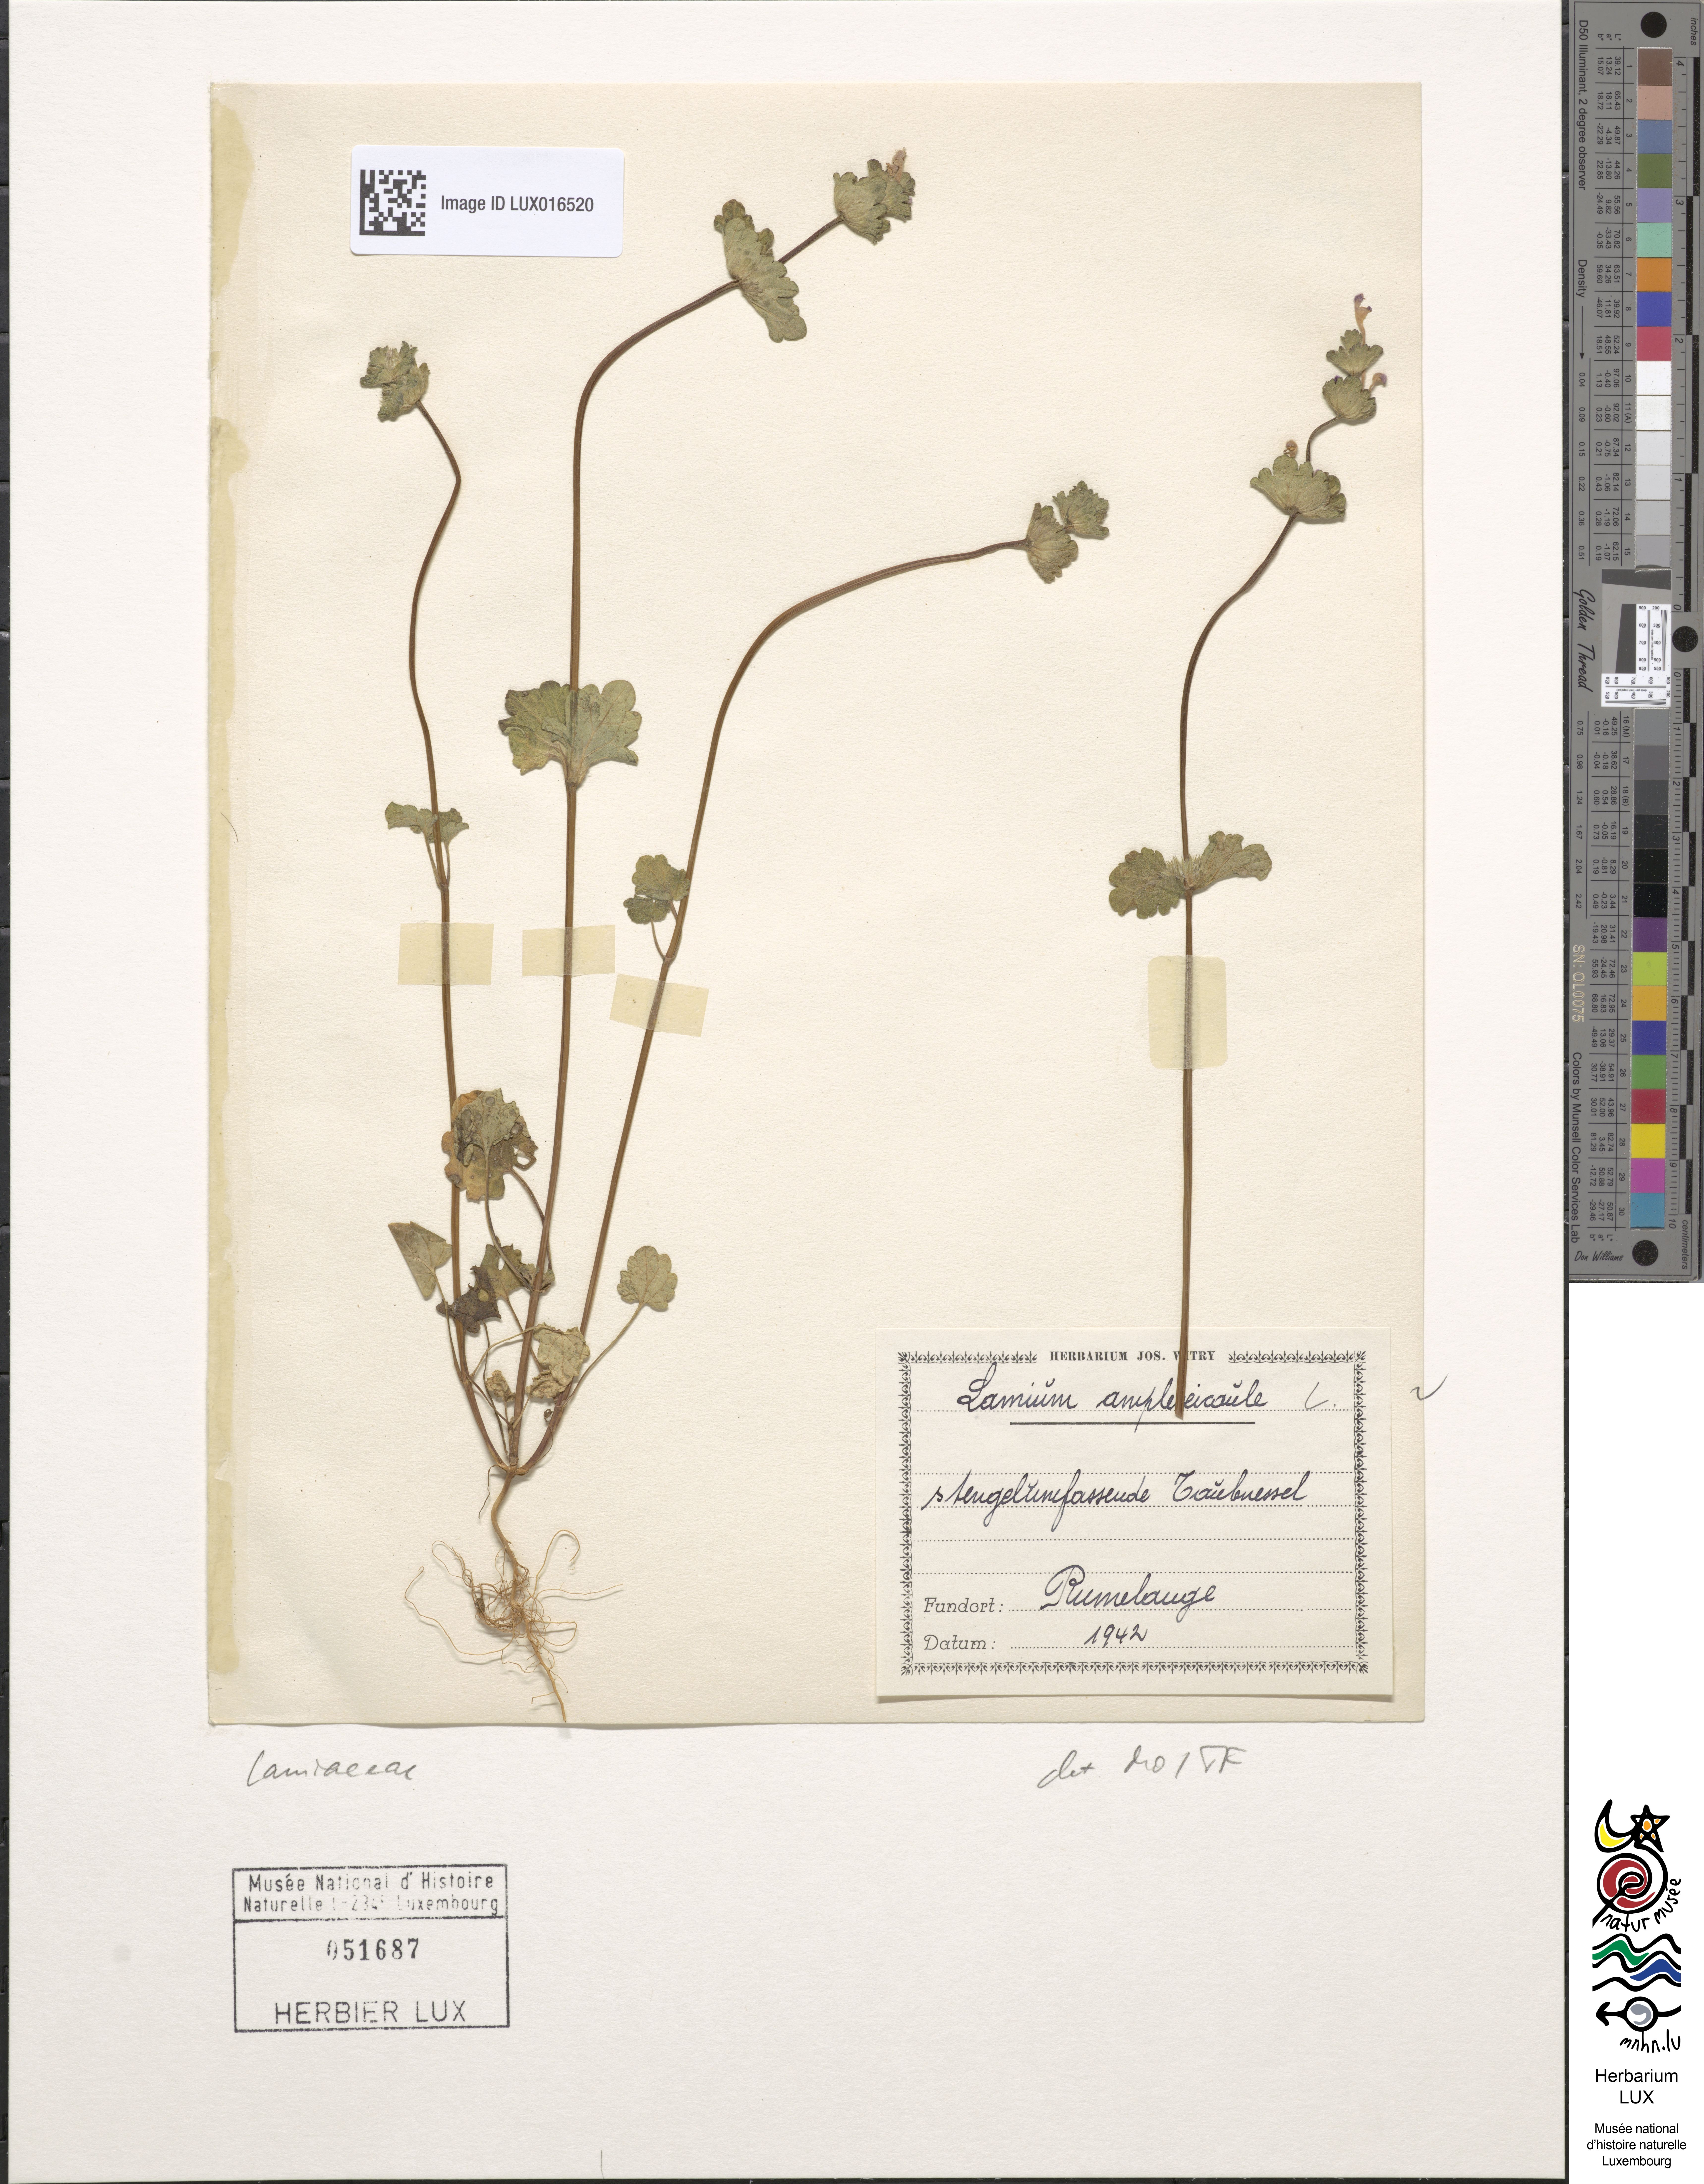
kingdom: Plantae
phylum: Tracheophyta
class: Magnoliopsida
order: Lamiales
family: Lamiaceae
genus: Lamium
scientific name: Lamium amplexicaule
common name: Henbit dead-nettle
